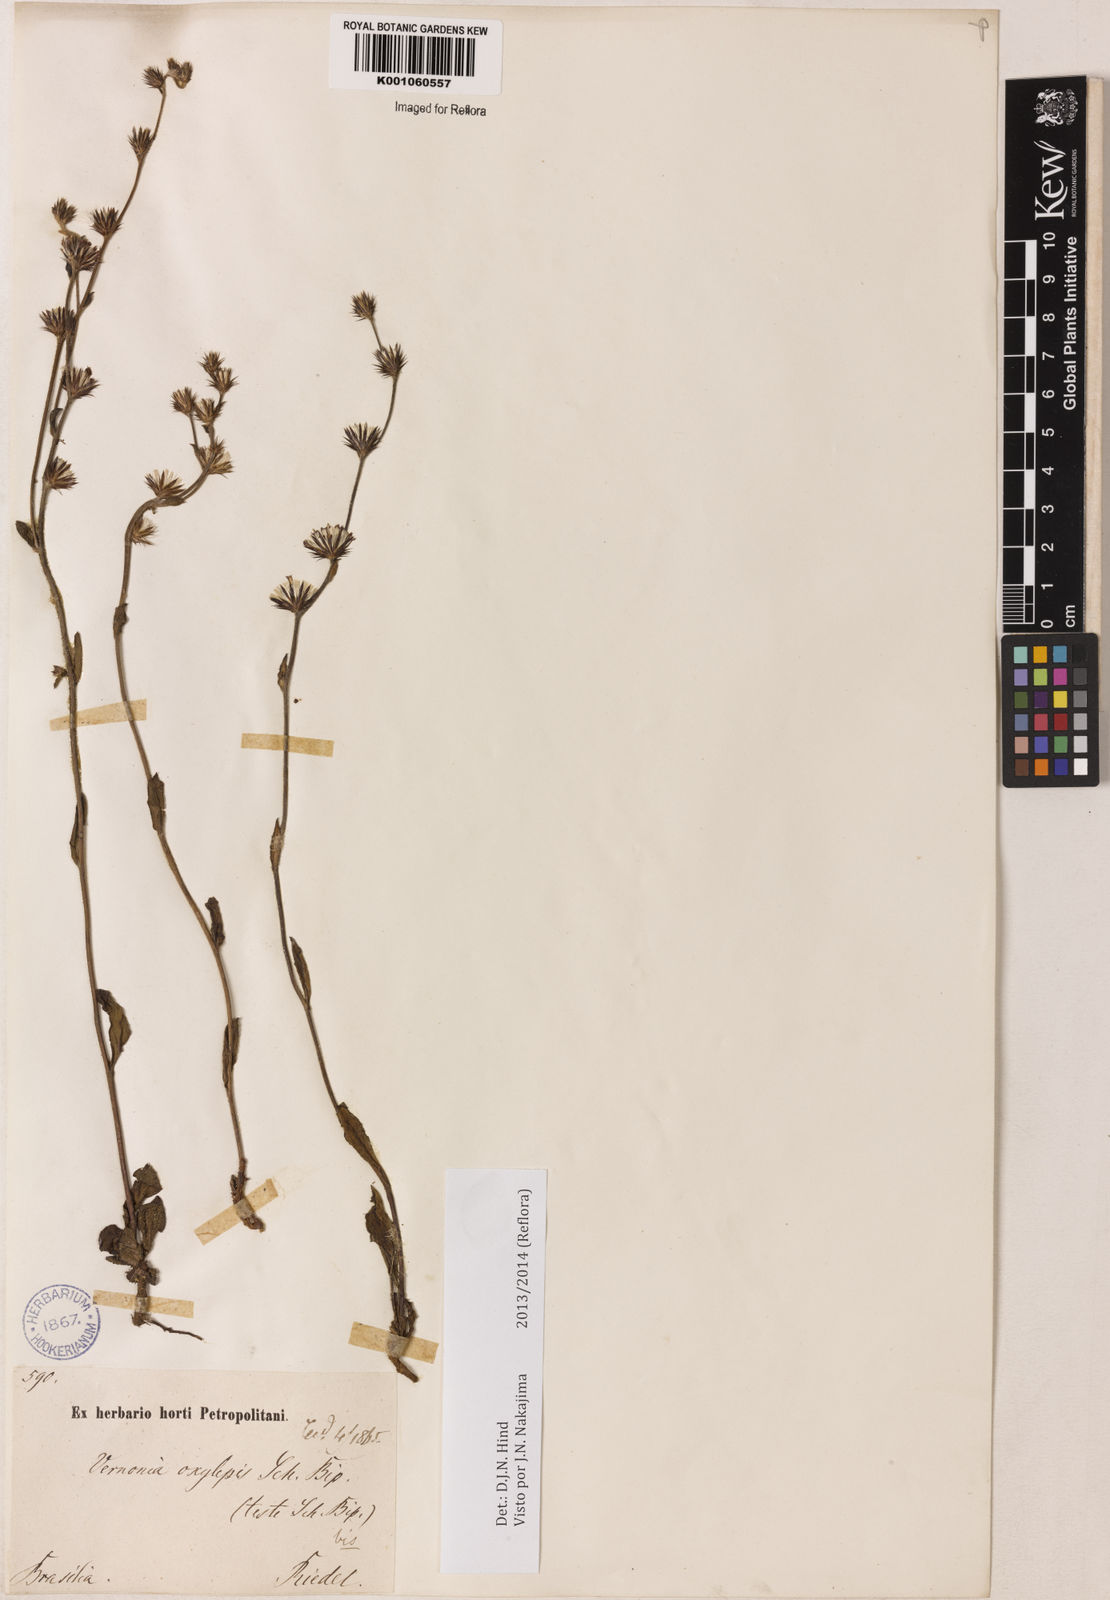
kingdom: Plantae
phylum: Tracheophyta
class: Magnoliopsida
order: Asterales
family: Asteraceae
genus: Lepidaploa
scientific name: Lepidaploa psilostachya
